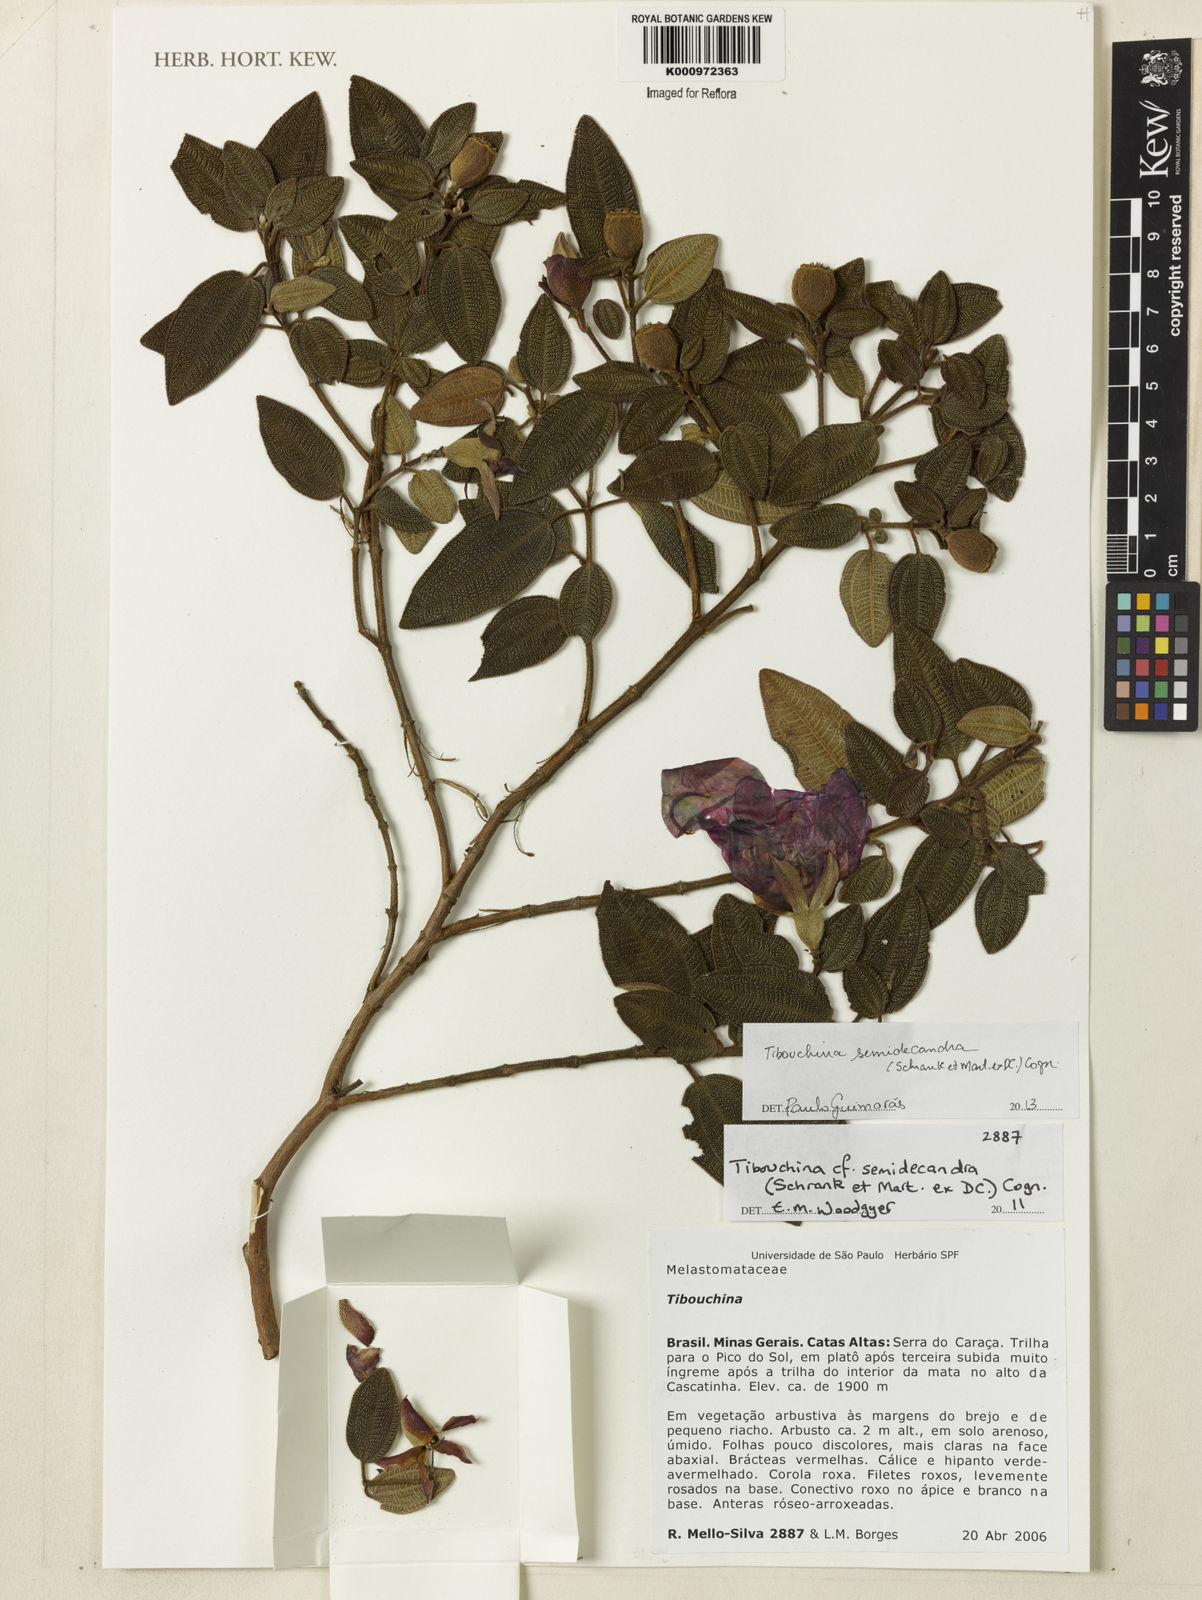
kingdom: Plantae
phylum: Tracheophyta
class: Magnoliopsida
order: Myrtales
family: Melastomataceae
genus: Pleroma
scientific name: Pleroma semidecandrum
